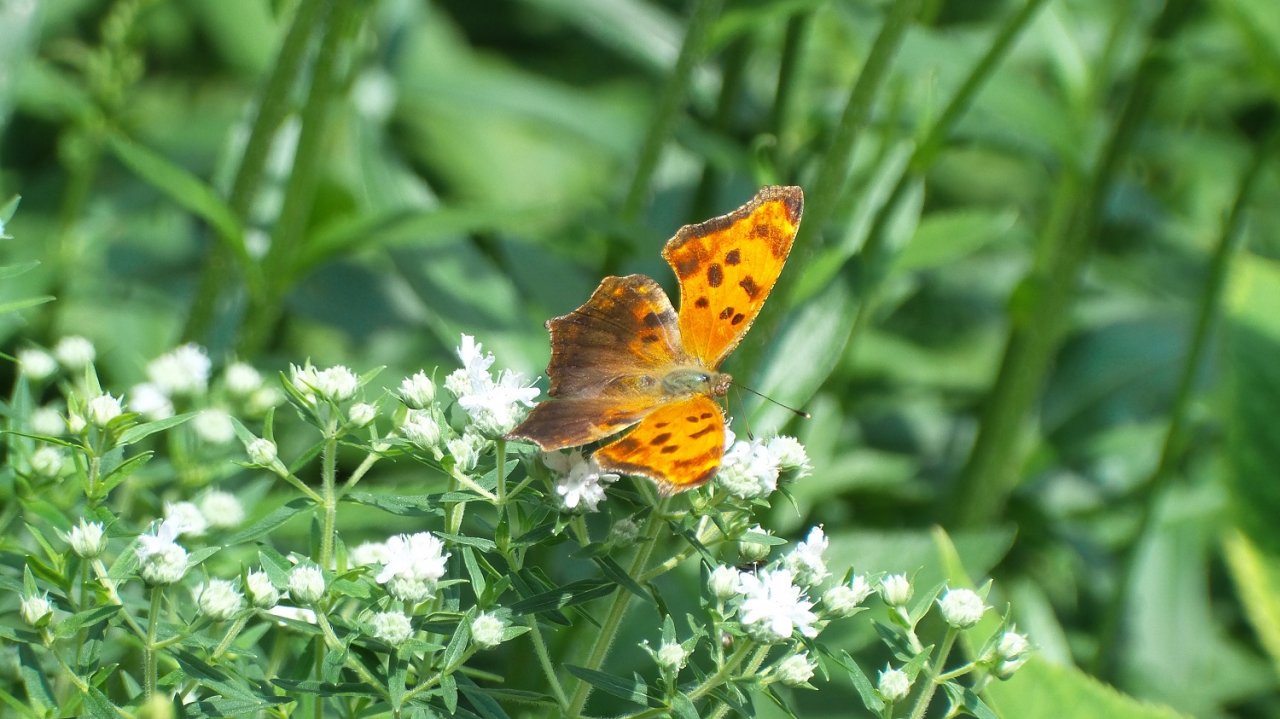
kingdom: Animalia
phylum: Arthropoda
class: Insecta
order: Lepidoptera
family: Nymphalidae
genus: Polygonia
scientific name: Polygonia comma
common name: Eastern Comma
